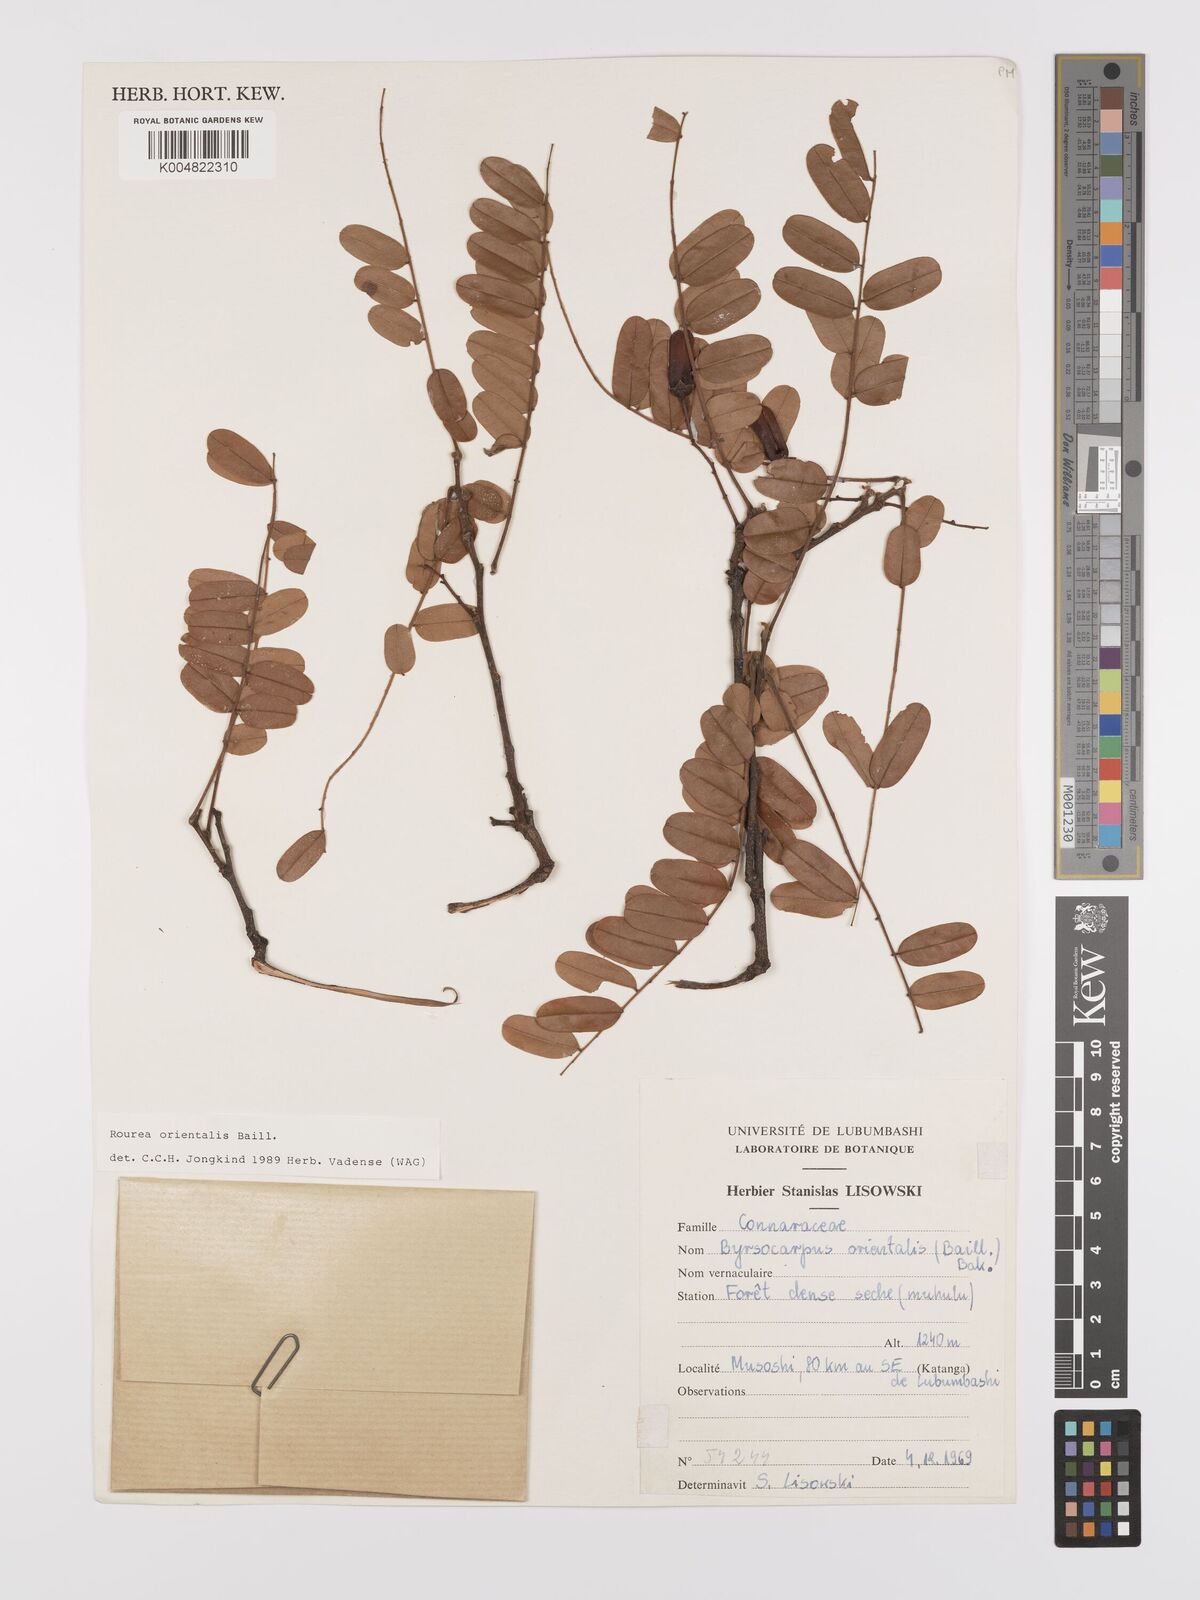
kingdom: Plantae
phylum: Tracheophyta
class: Magnoliopsida
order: Oxalidales
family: Connaraceae
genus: Rourea
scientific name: Rourea orientalis
